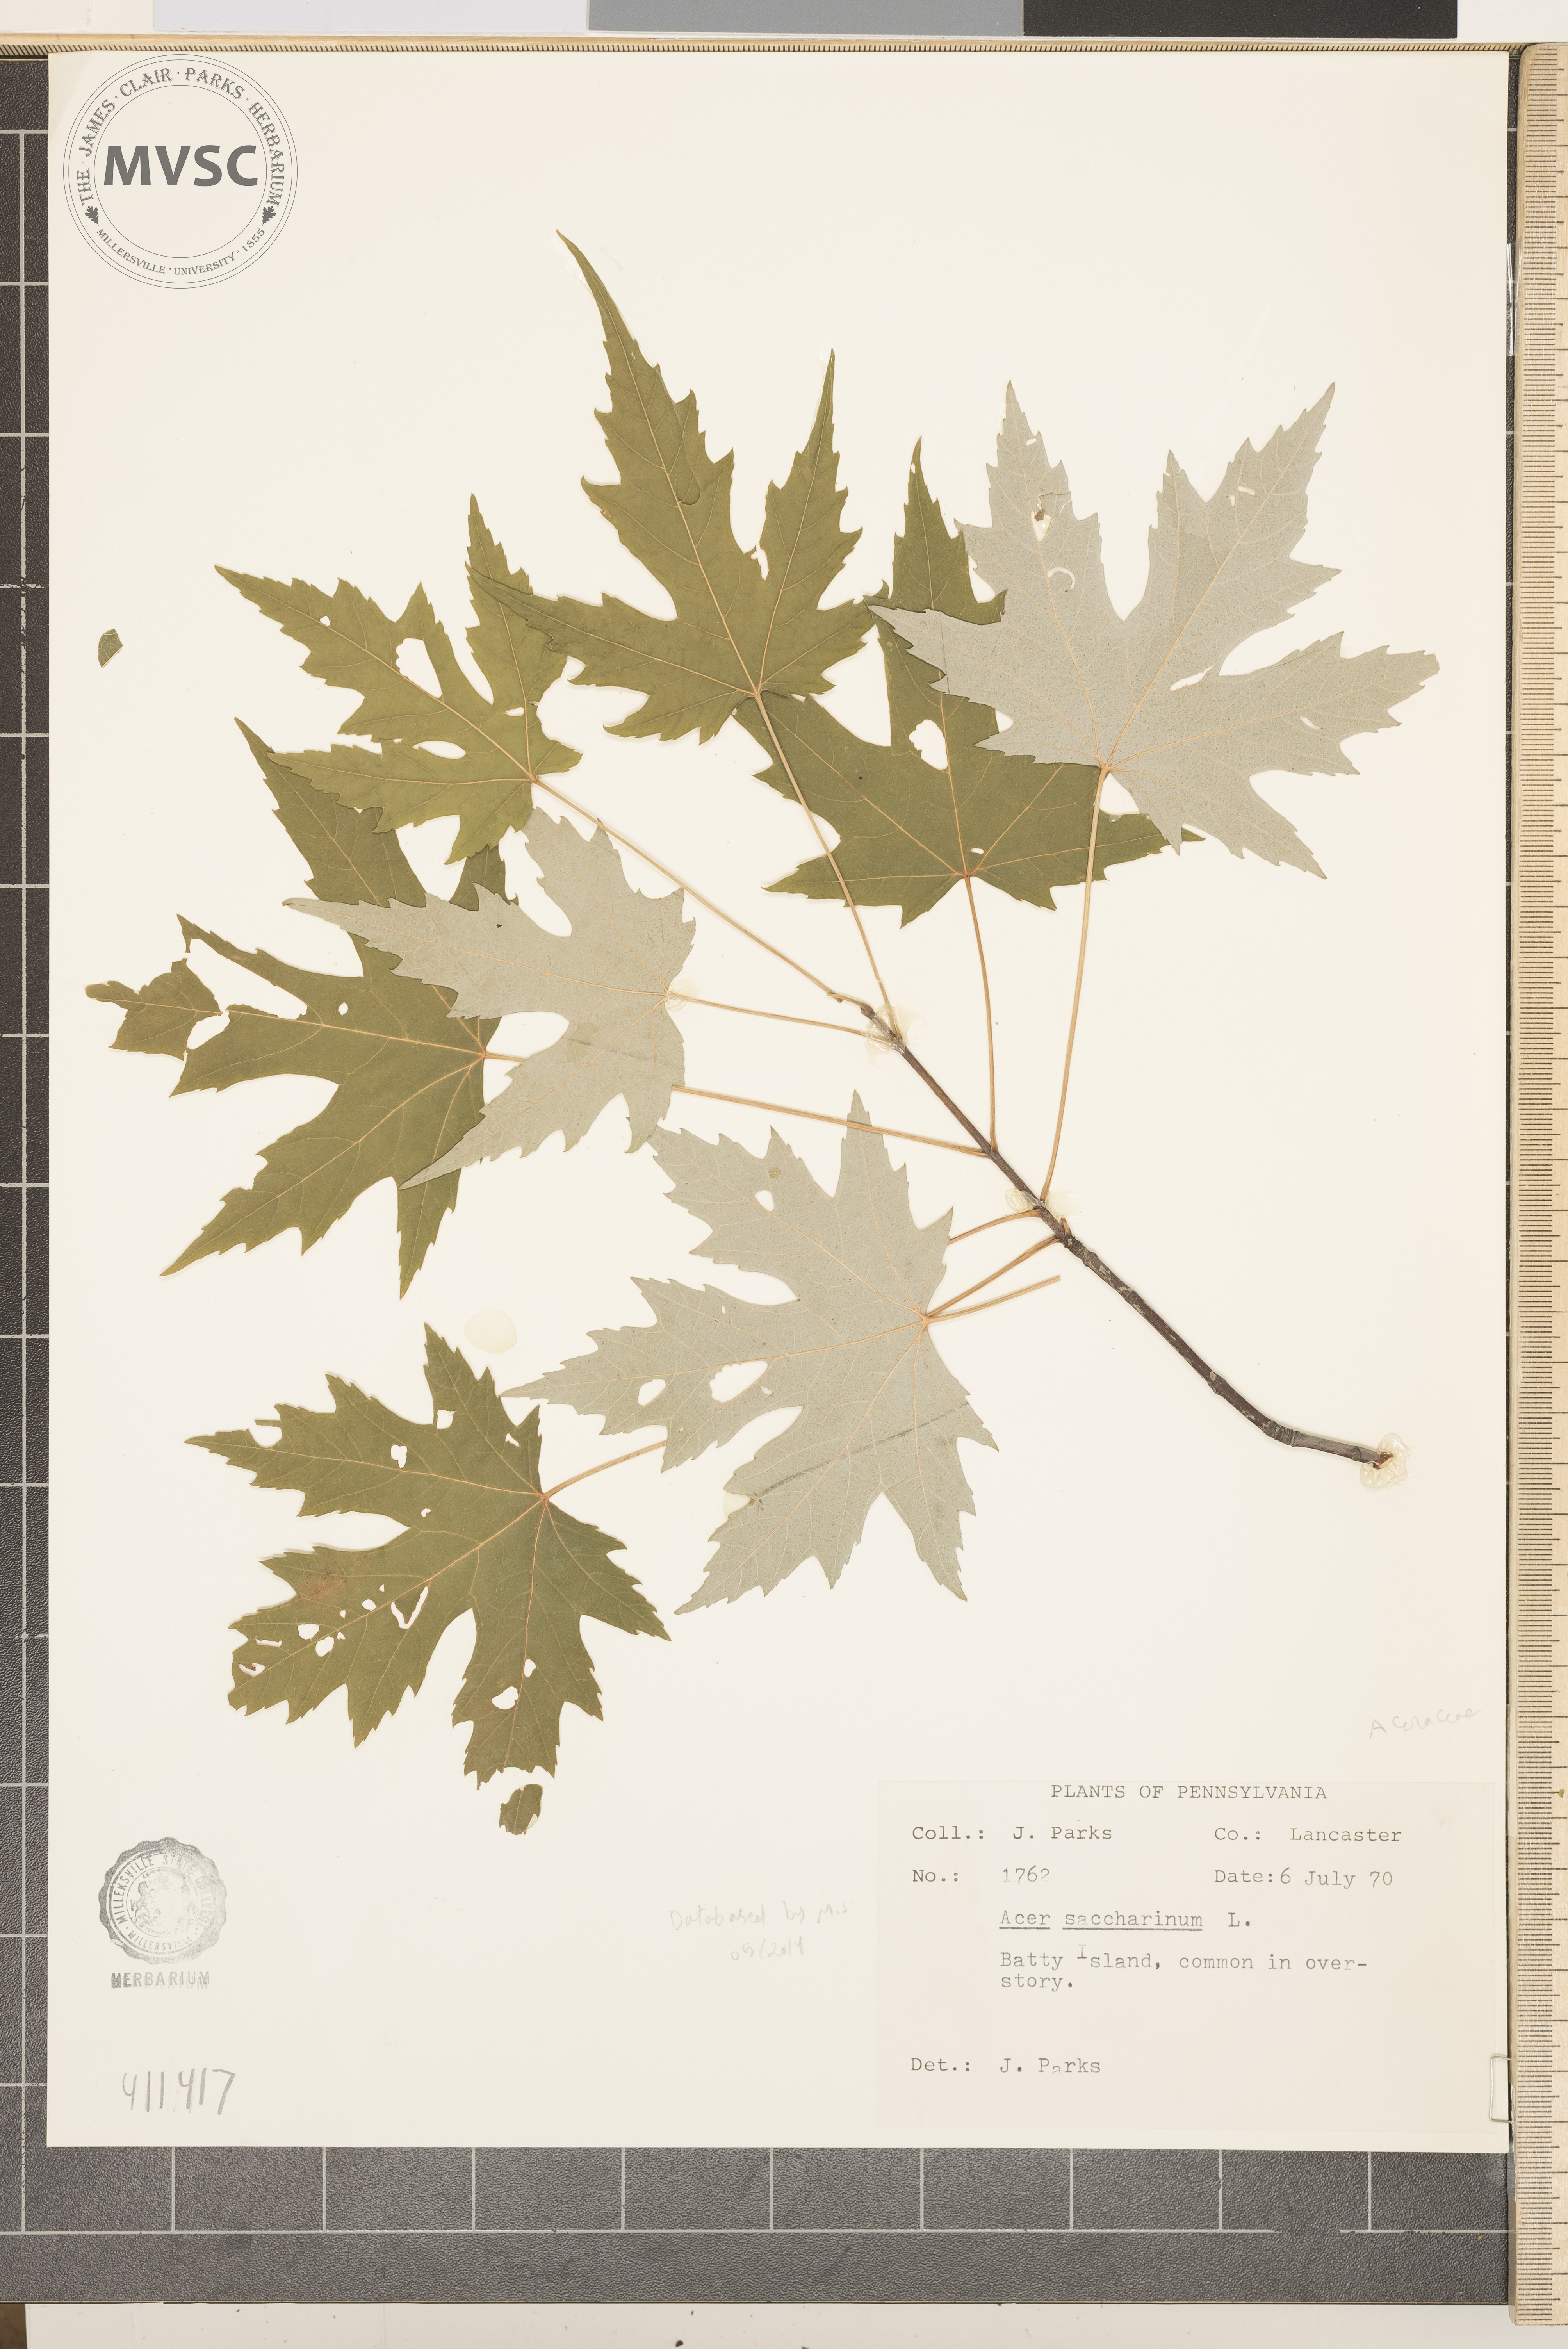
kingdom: Plantae
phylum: Tracheophyta
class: Magnoliopsida
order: Sapindales
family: Sapindaceae
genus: Acer
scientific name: Acer saccharinum
